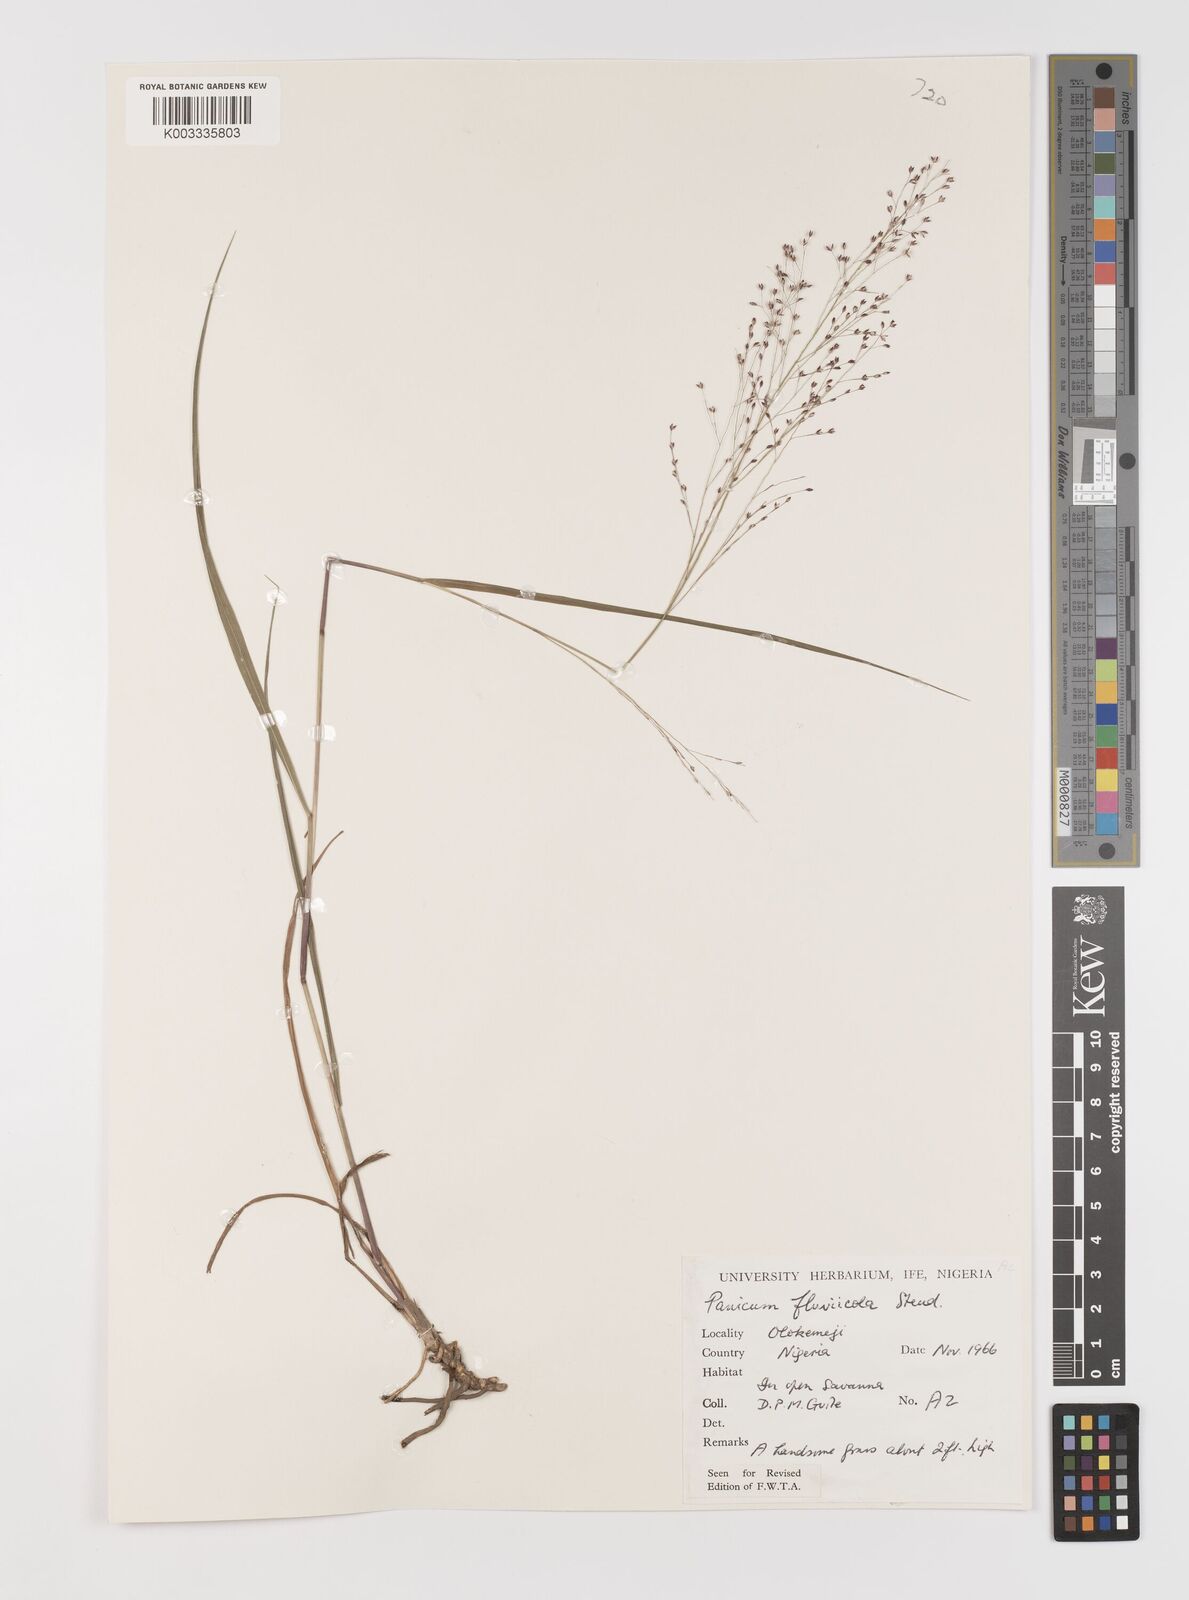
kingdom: Plantae
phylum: Tracheophyta
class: Liliopsida
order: Poales
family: Poaceae
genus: Panicum
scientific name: Panicum fluviicola
